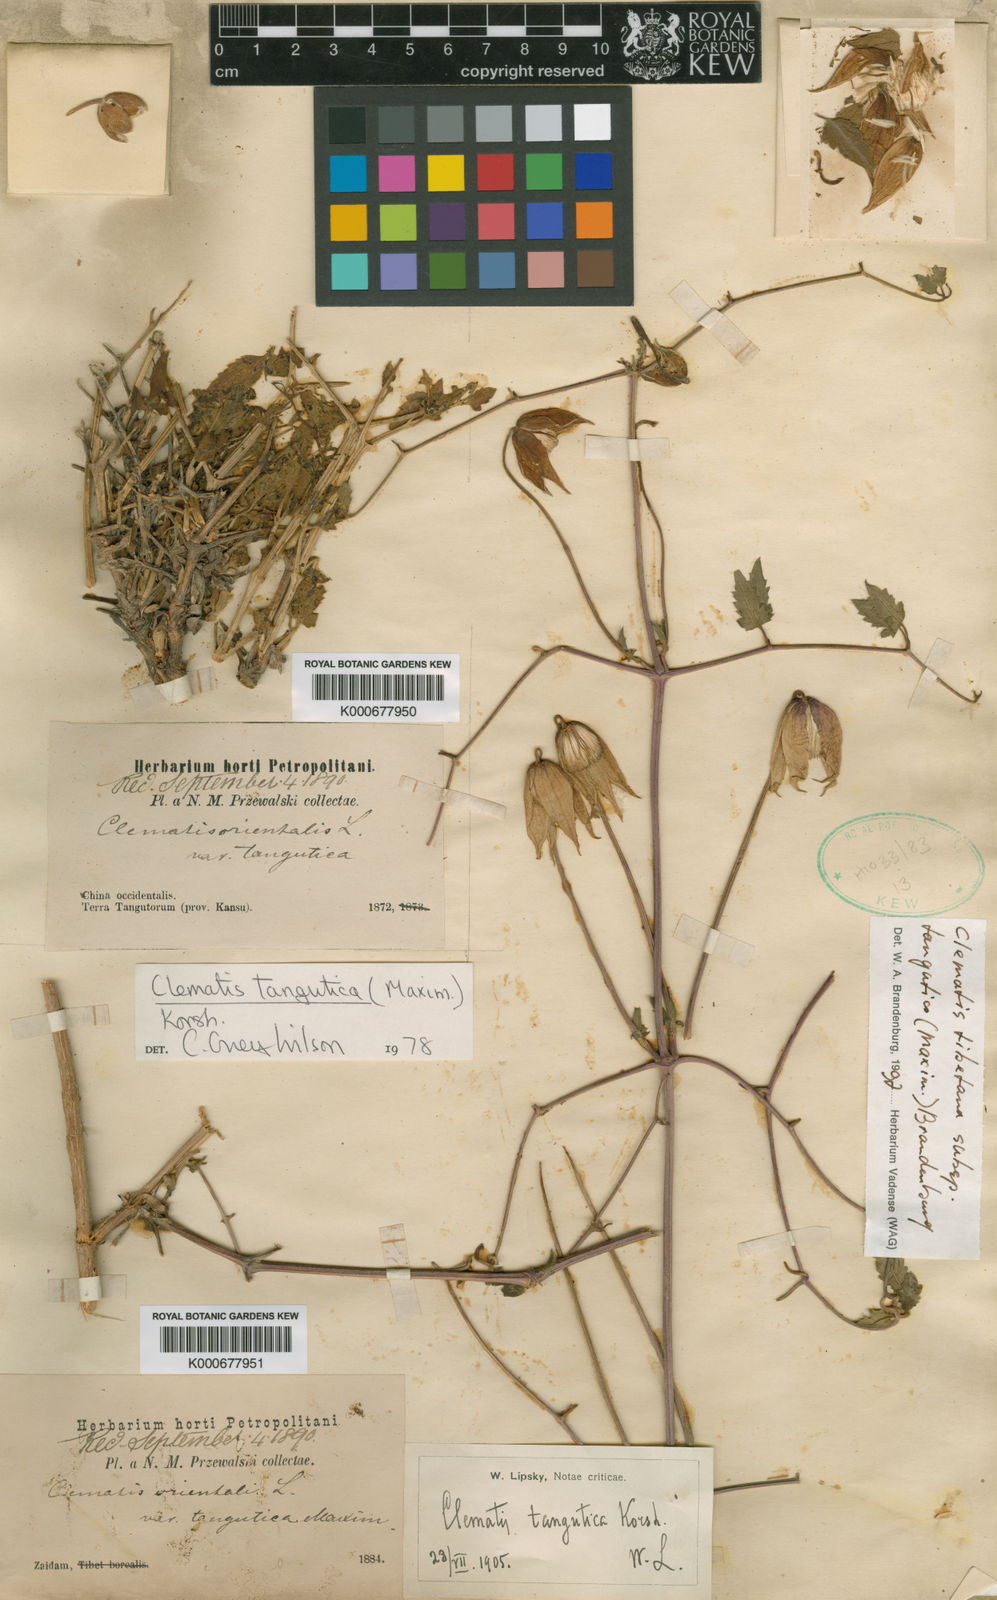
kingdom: Plantae
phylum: Tracheophyta
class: Magnoliopsida
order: Ranunculales
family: Ranunculaceae
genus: Clematis
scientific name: Clematis tangutica
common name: Orange-peel clematis
